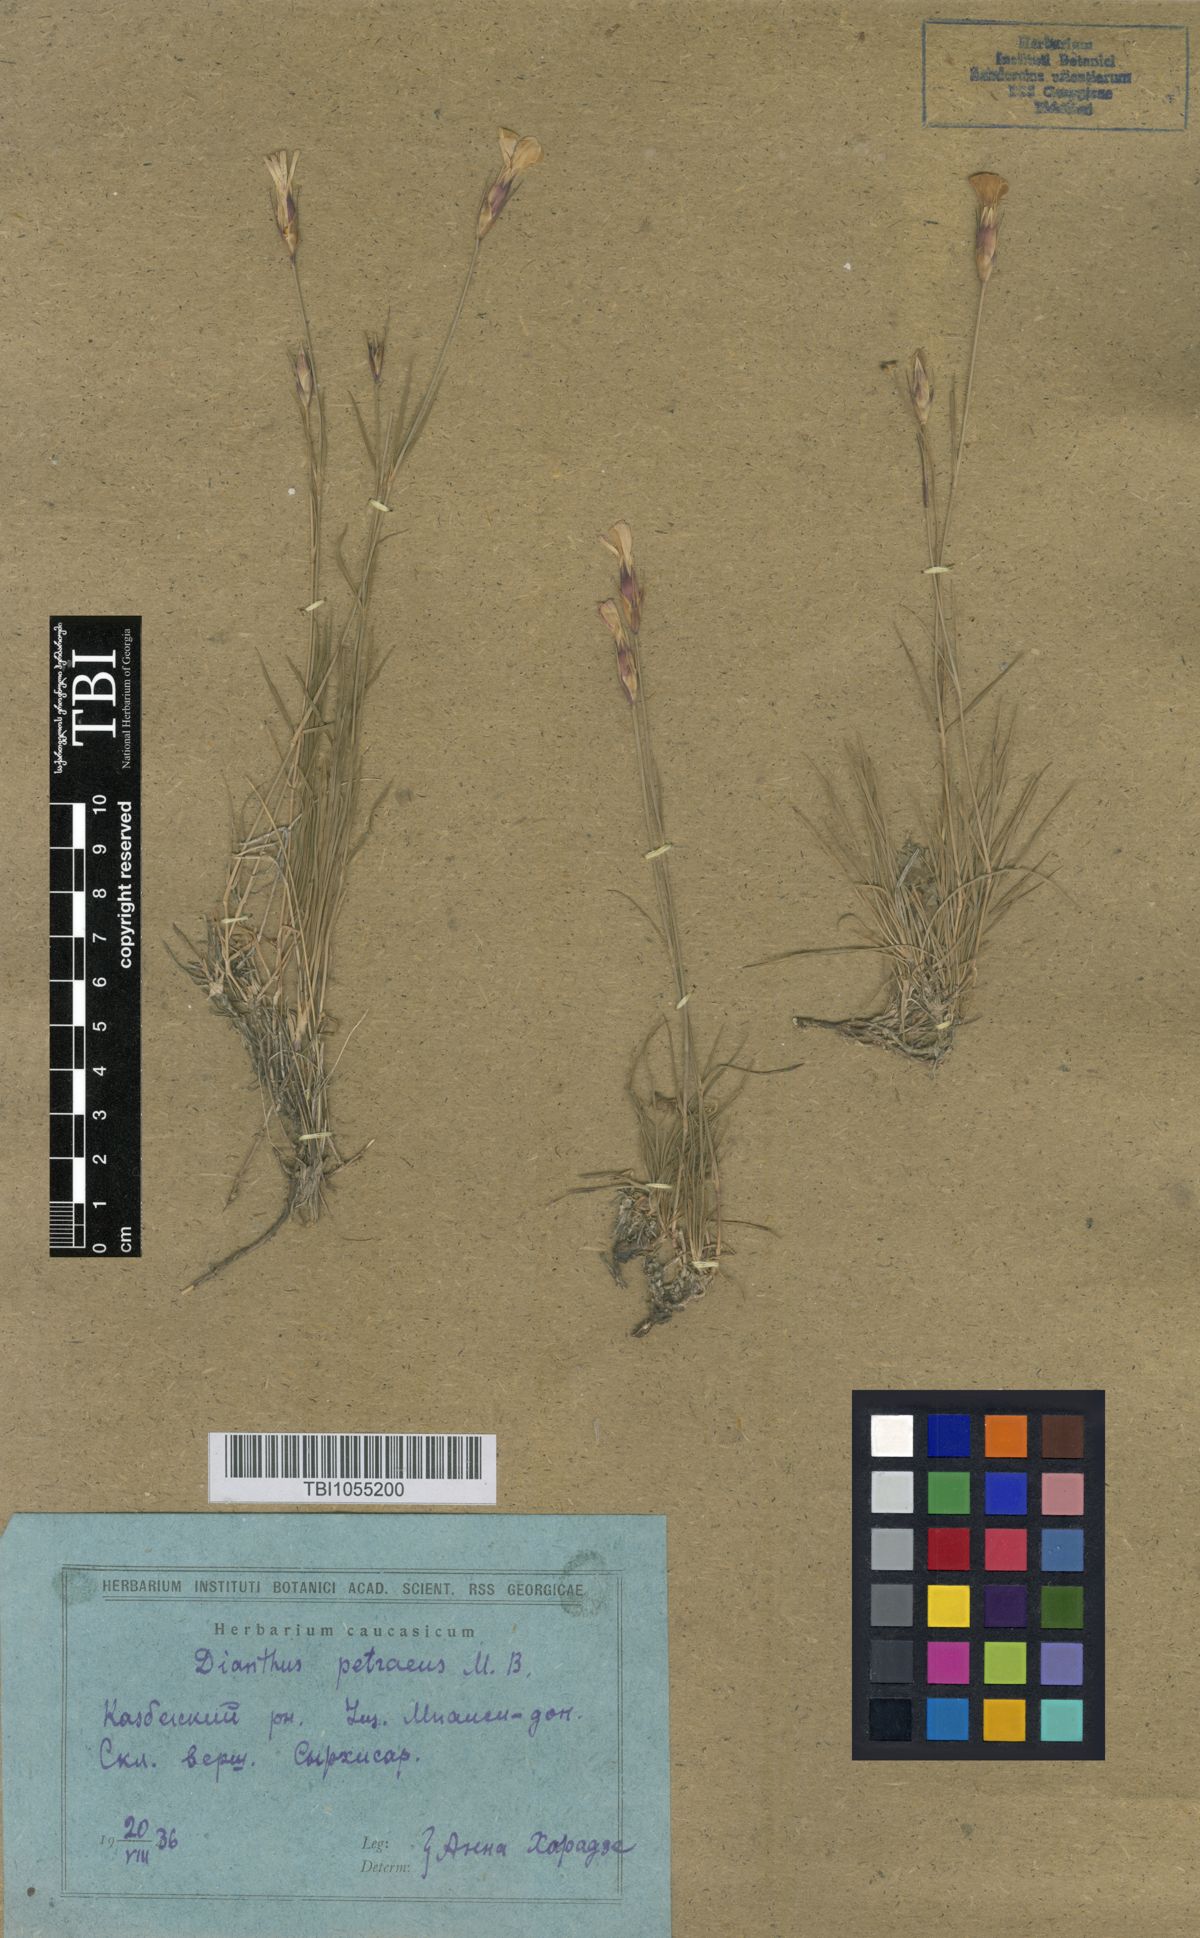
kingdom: Plantae
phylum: Tracheophyta
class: Magnoliopsida
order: Caryophyllales
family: Caryophyllaceae
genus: Dianthus
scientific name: Dianthus cretaceus
